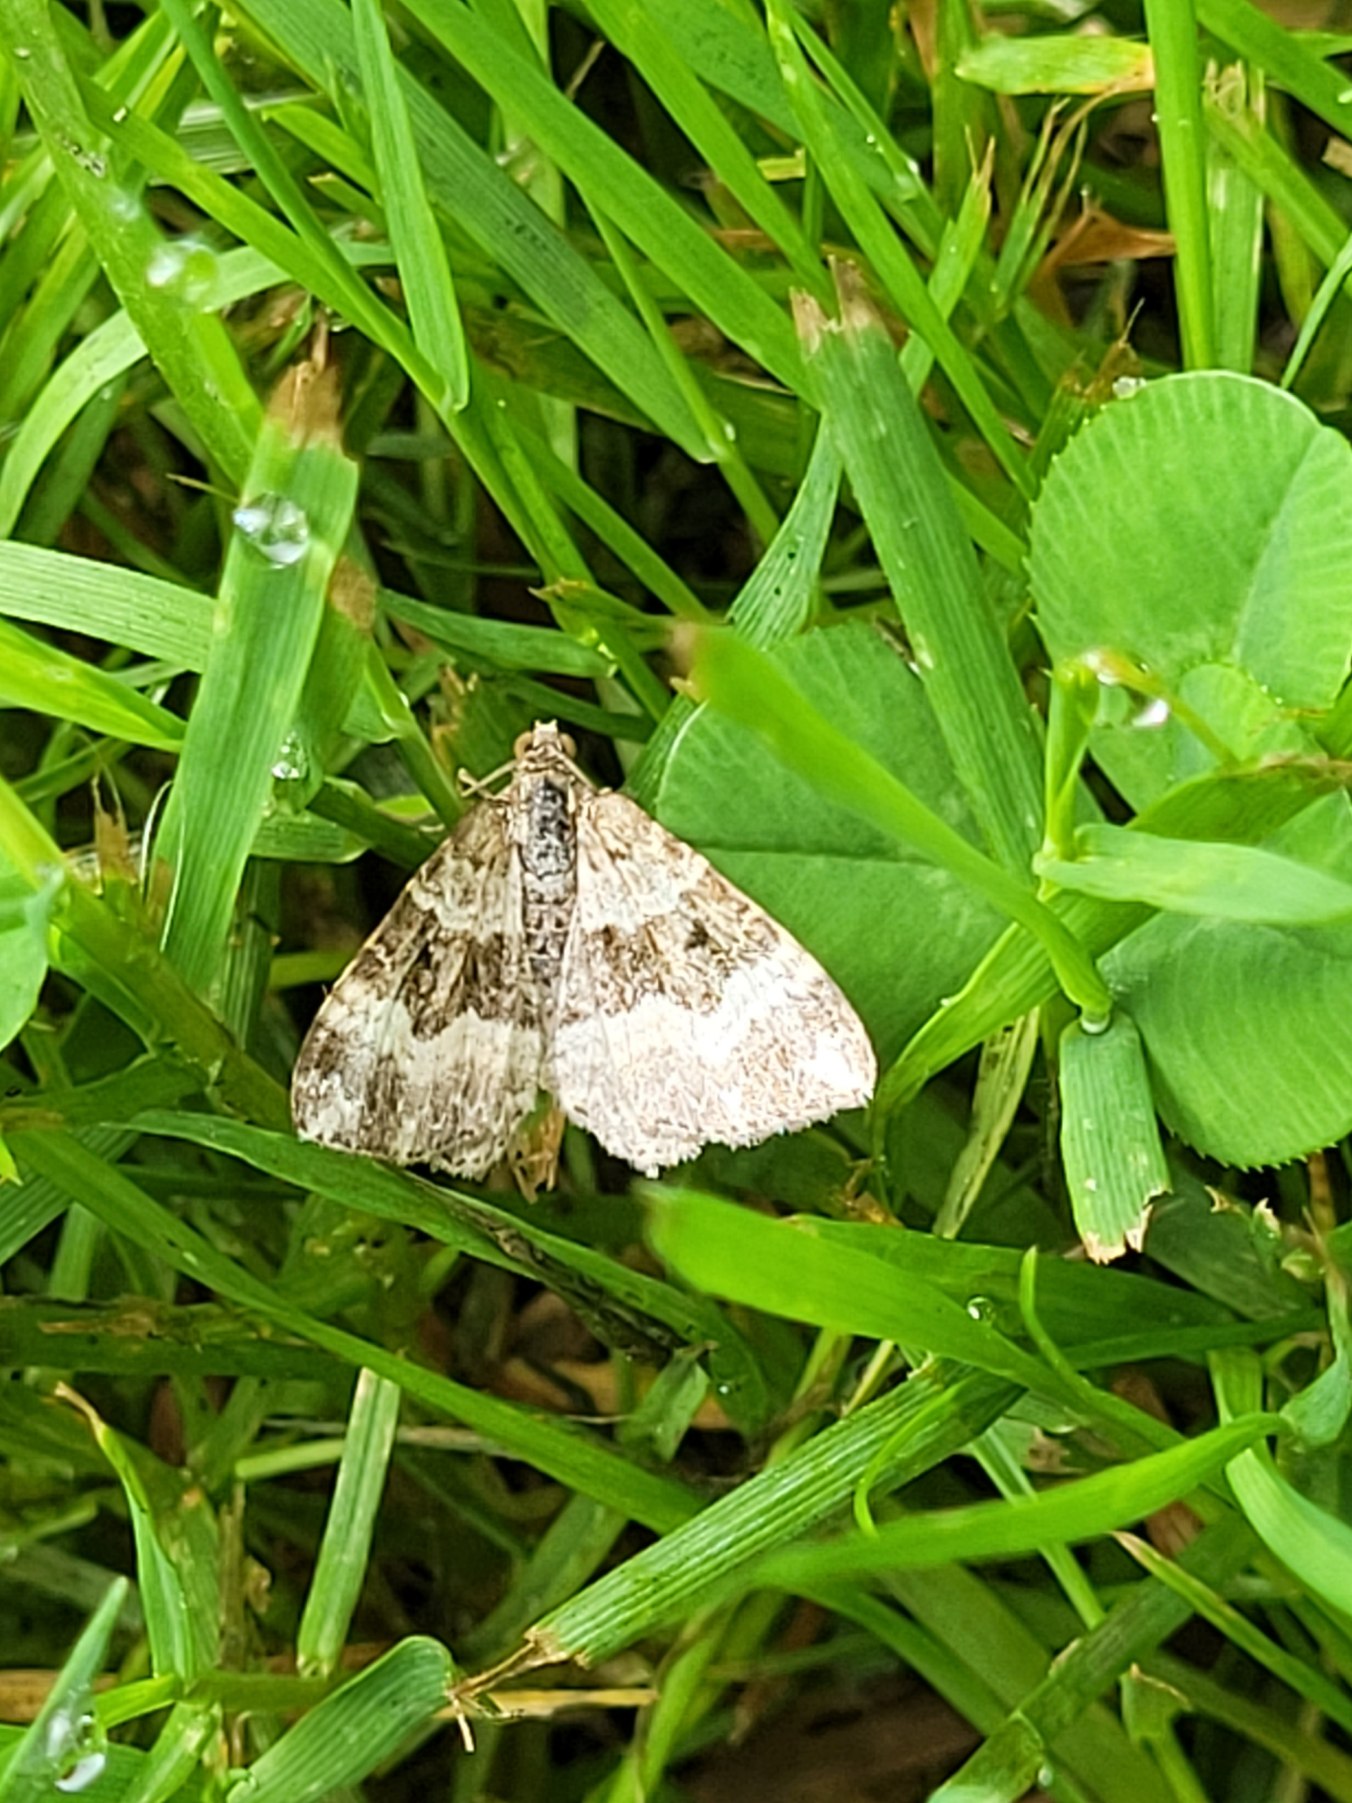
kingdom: Animalia
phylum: Arthropoda
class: Insecta
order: Lepidoptera
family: Geometridae
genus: Epirrhoe
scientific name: Epirrhoe alternata
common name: Almindelig bladmåler
